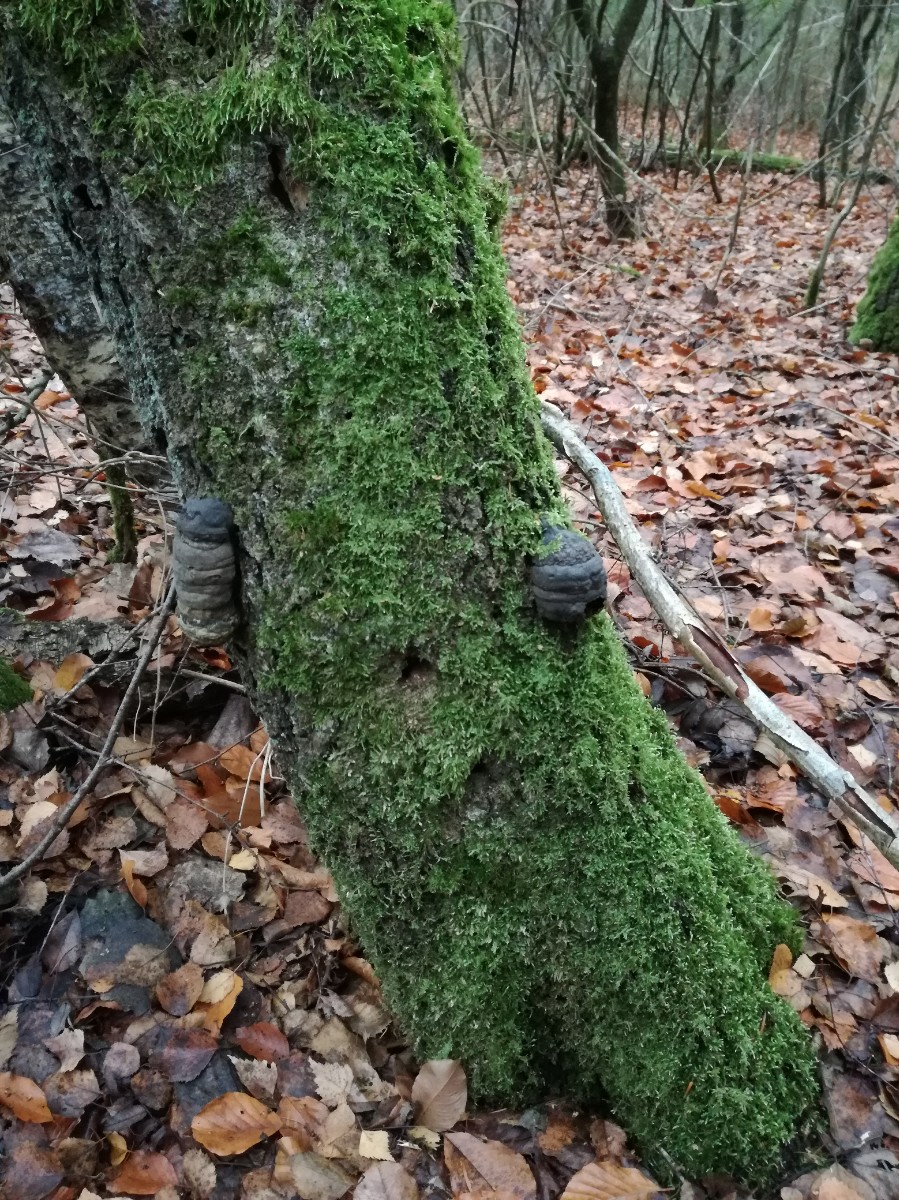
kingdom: Fungi
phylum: Basidiomycota
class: Agaricomycetes
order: Polyporales
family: Polyporaceae
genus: Fomes
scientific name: Fomes fomentarius
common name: tøndersvamp
